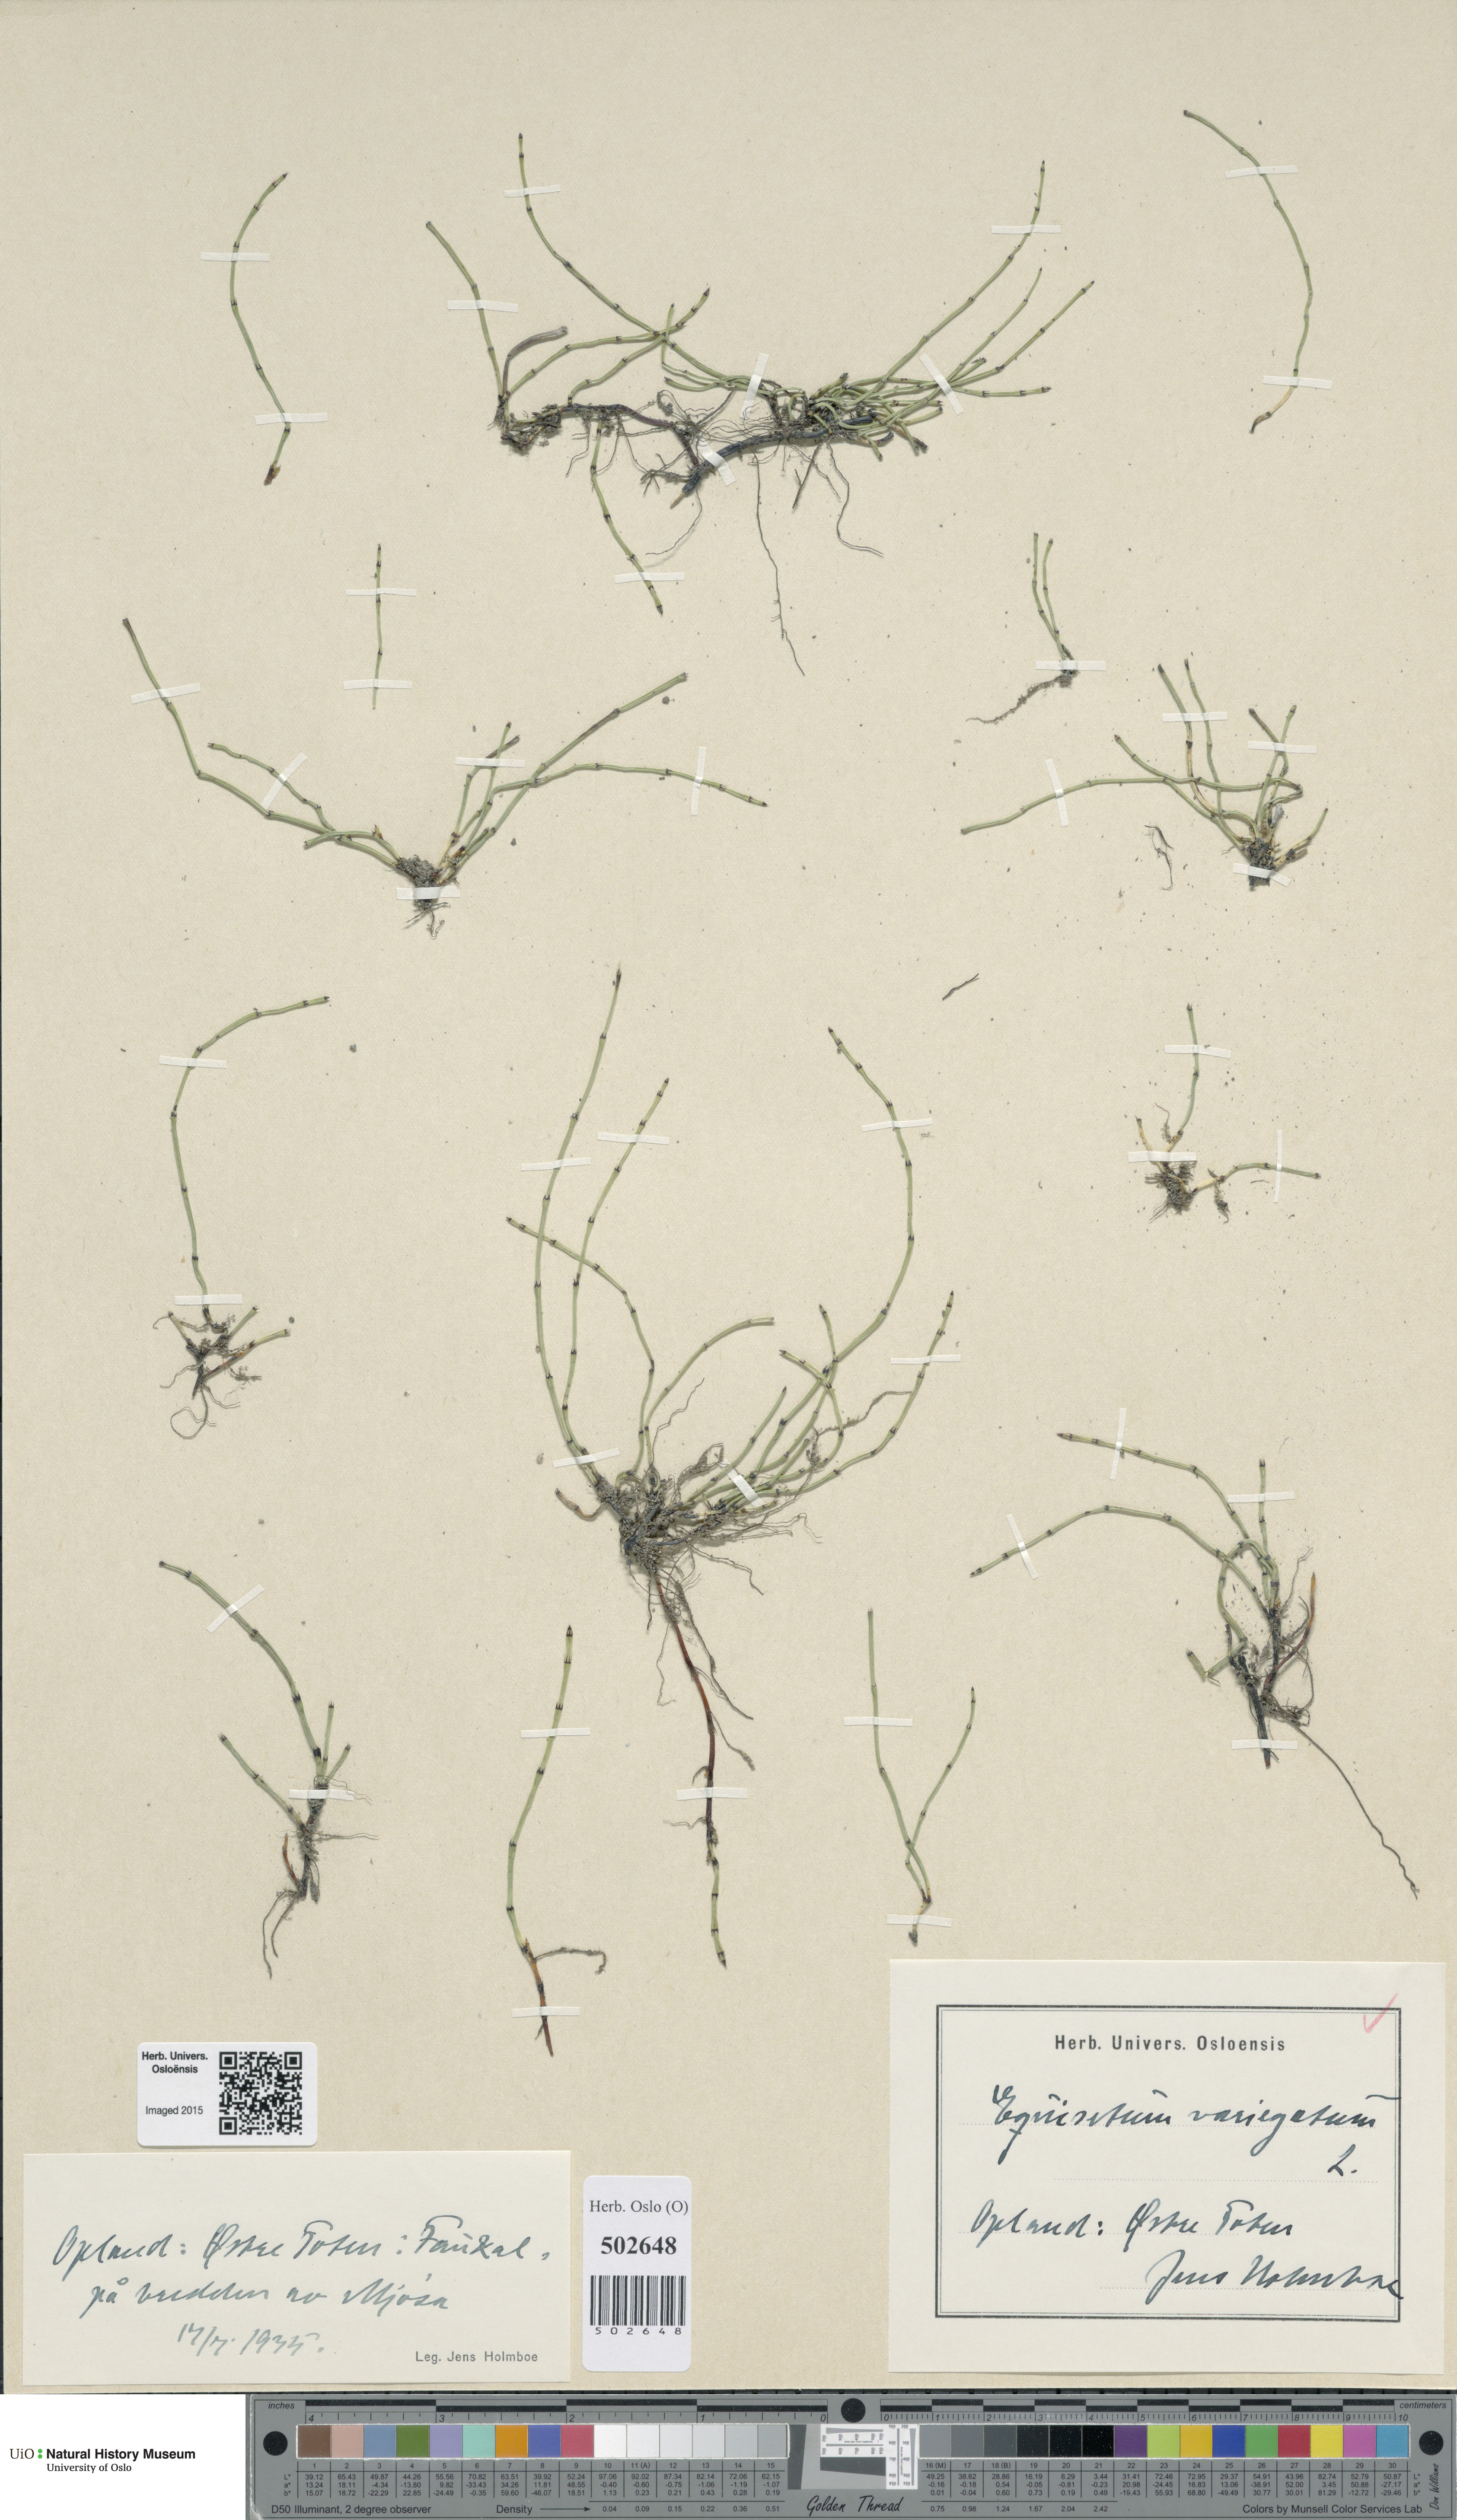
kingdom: Plantae
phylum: Tracheophyta
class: Polypodiopsida
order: Equisetales
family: Equisetaceae
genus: Equisetum
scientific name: Equisetum variegatum
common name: Variegated horsetail
